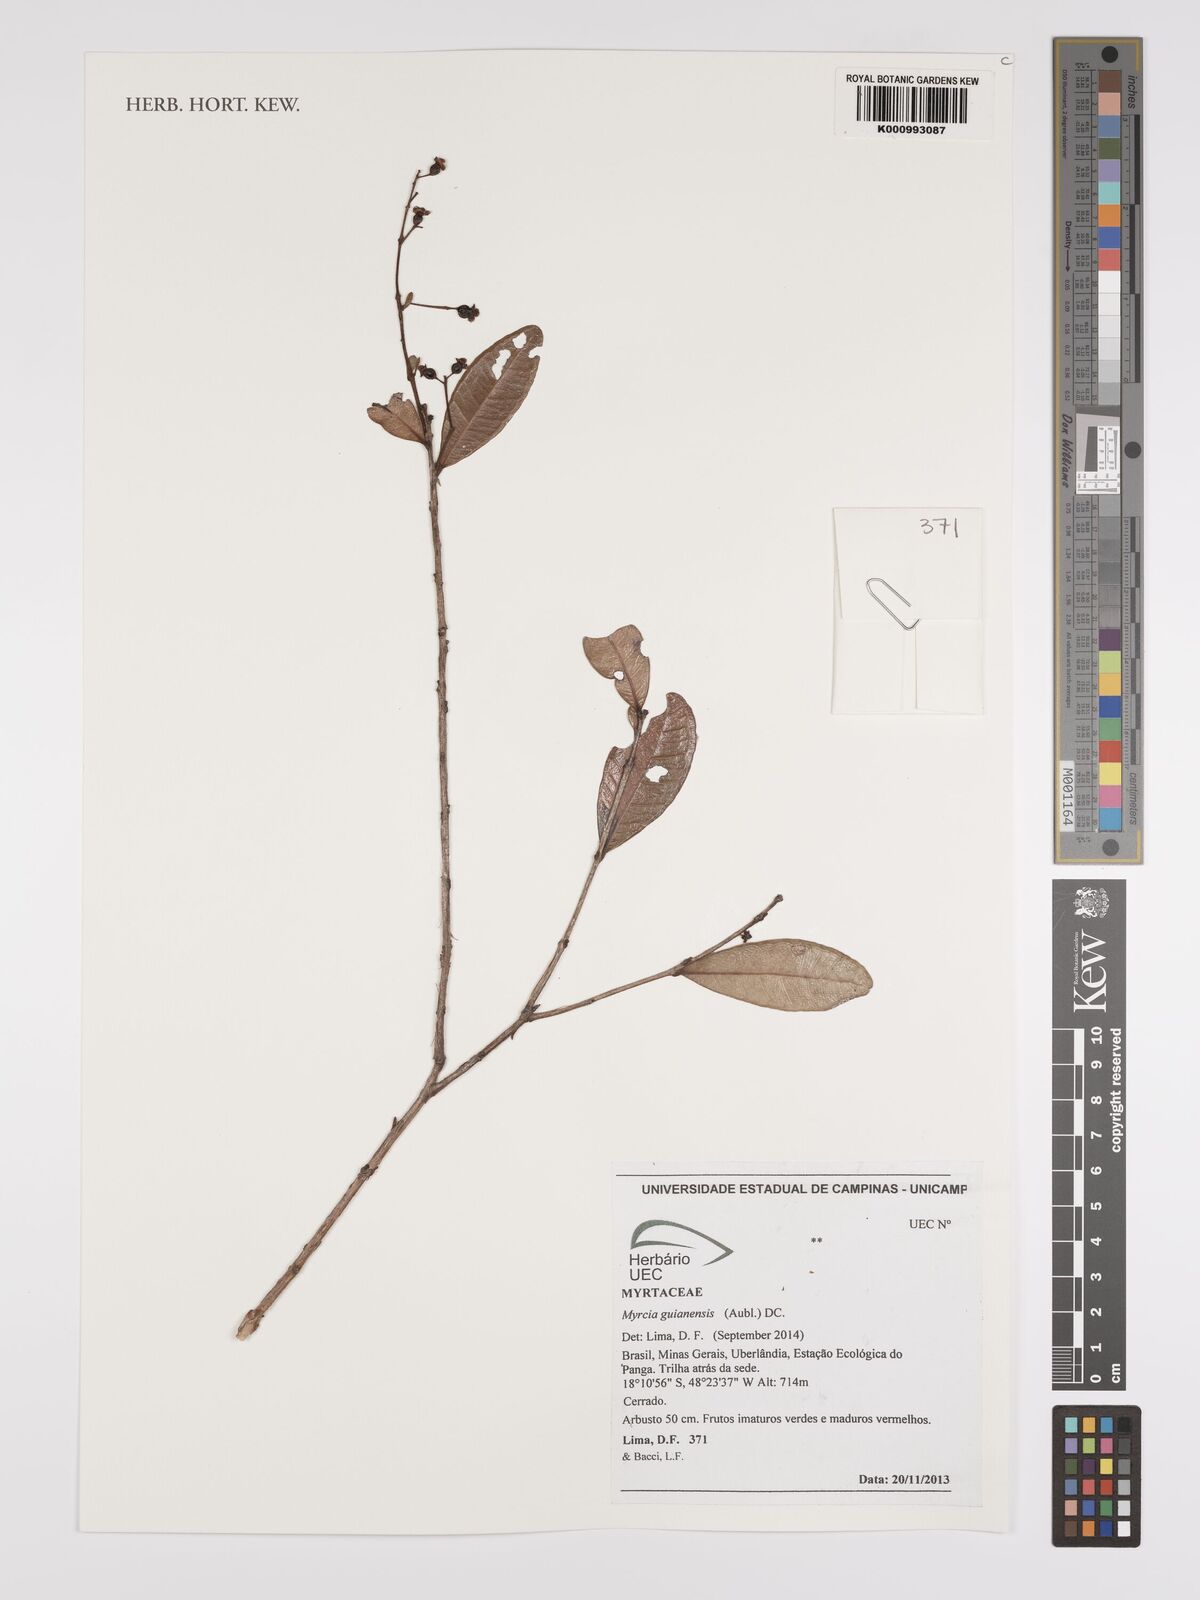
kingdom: Plantae
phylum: Tracheophyta
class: Magnoliopsida
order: Myrtales
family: Myrtaceae
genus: Myrcia
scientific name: Myrcia guianensis
